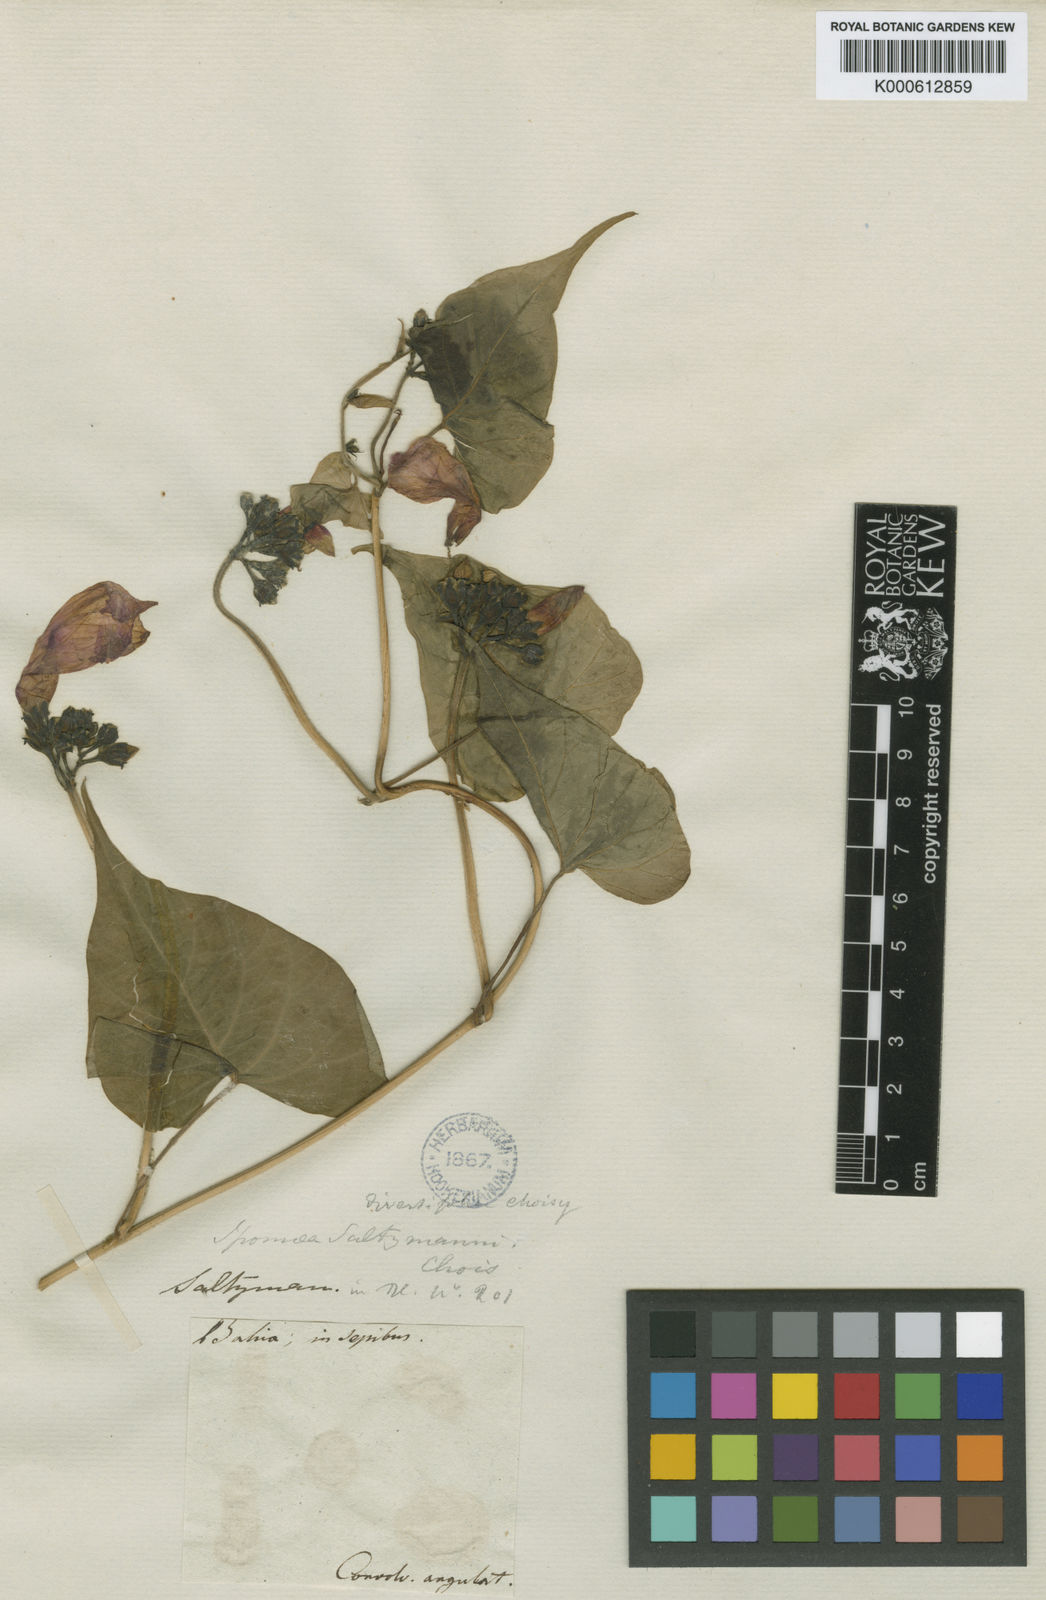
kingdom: Plantae
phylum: Tracheophyta
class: Magnoliopsida
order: Solanales
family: Convolvulaceae
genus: Ipomoea
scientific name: Ipomoea
